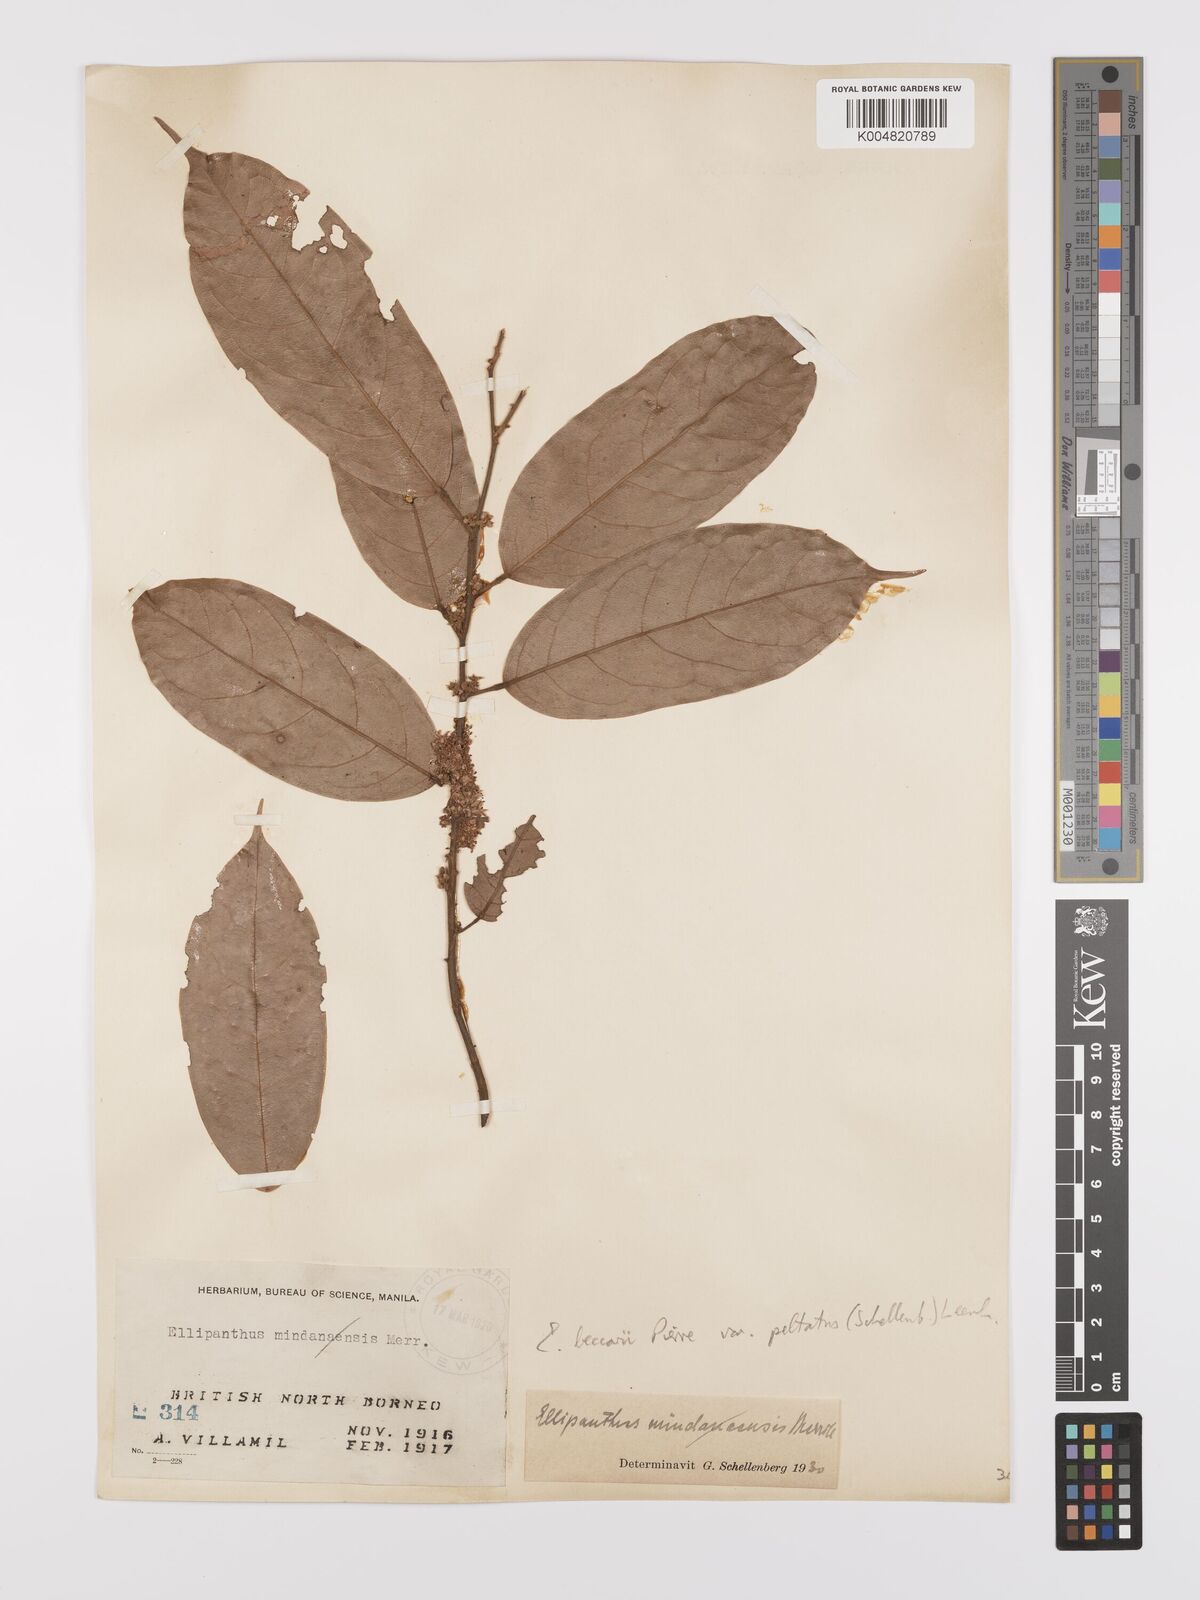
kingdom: Plantae
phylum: Tracheophyta
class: Magnoliopsida
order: Oxalidales
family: Connaraceae
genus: Ellipanthus
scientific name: Ellipanthus beccarii
